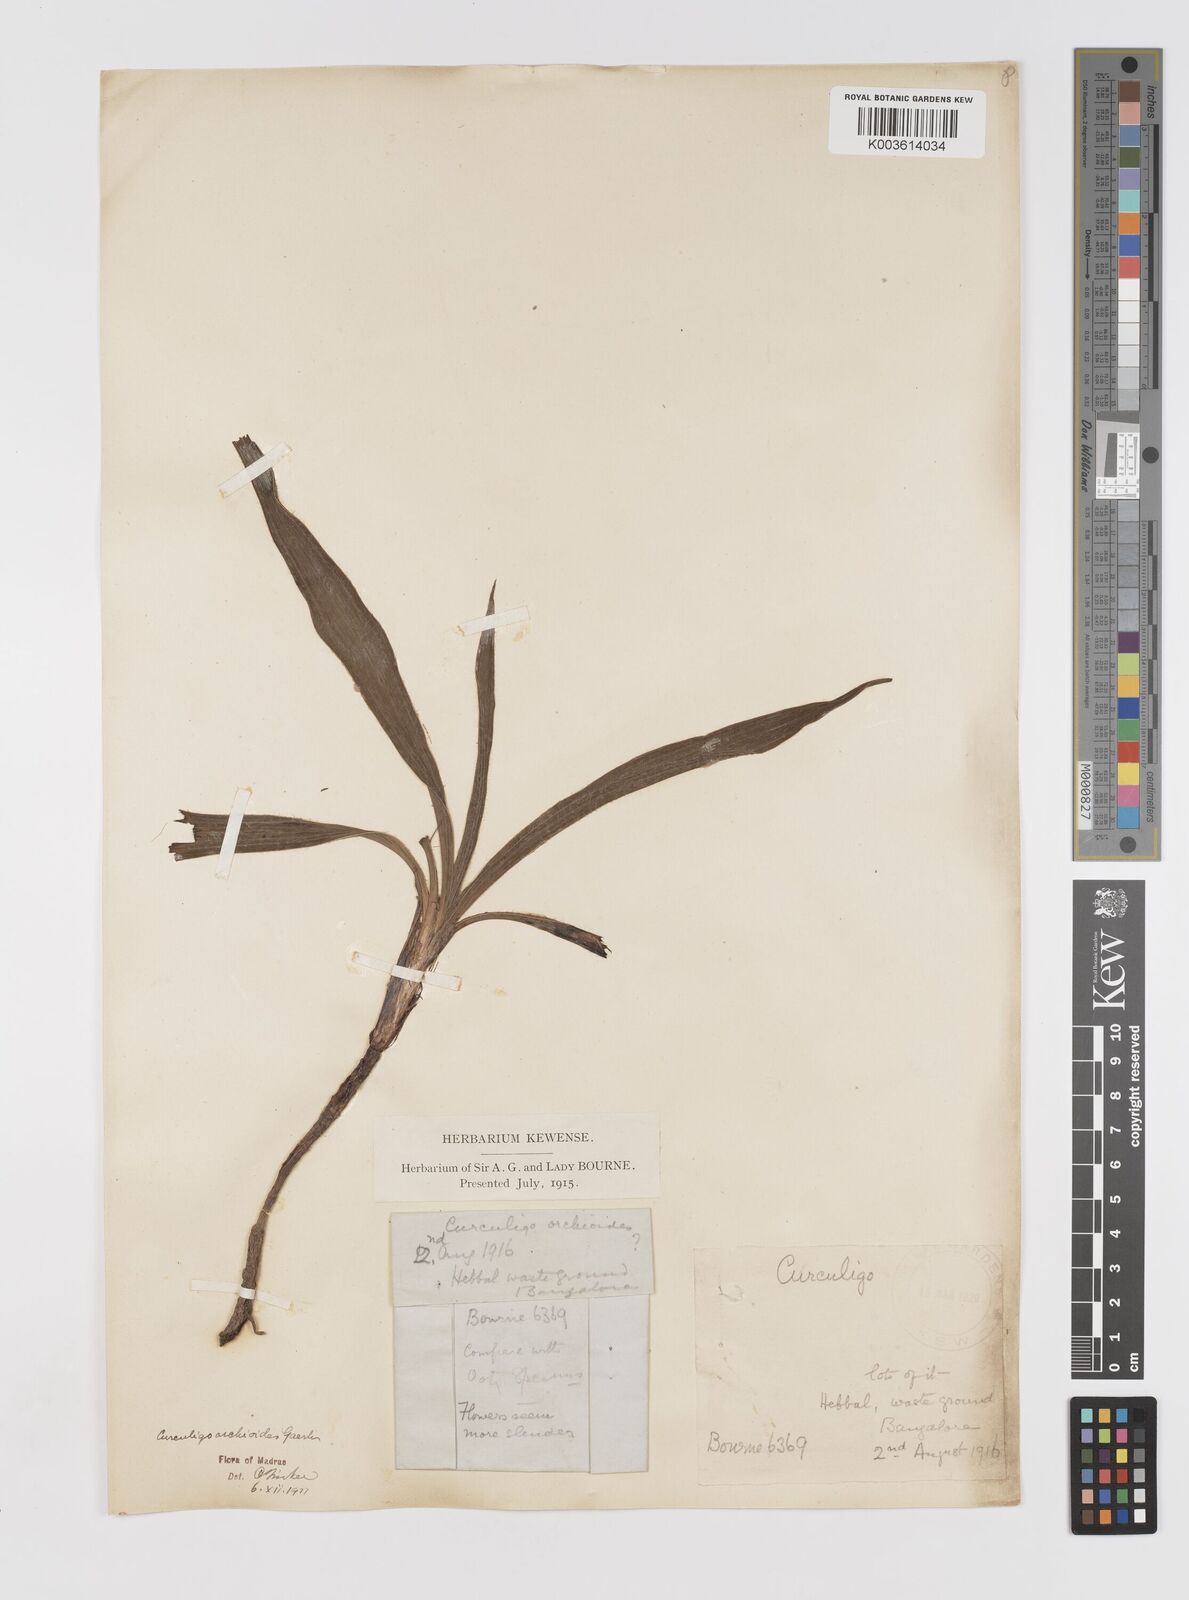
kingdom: Plantae
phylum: Tracheophyta
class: Liliopsida
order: Asparagales
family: Hypoxidaceae
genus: Curculigo
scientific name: Curculigo orchioides
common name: Golden eye-grass
